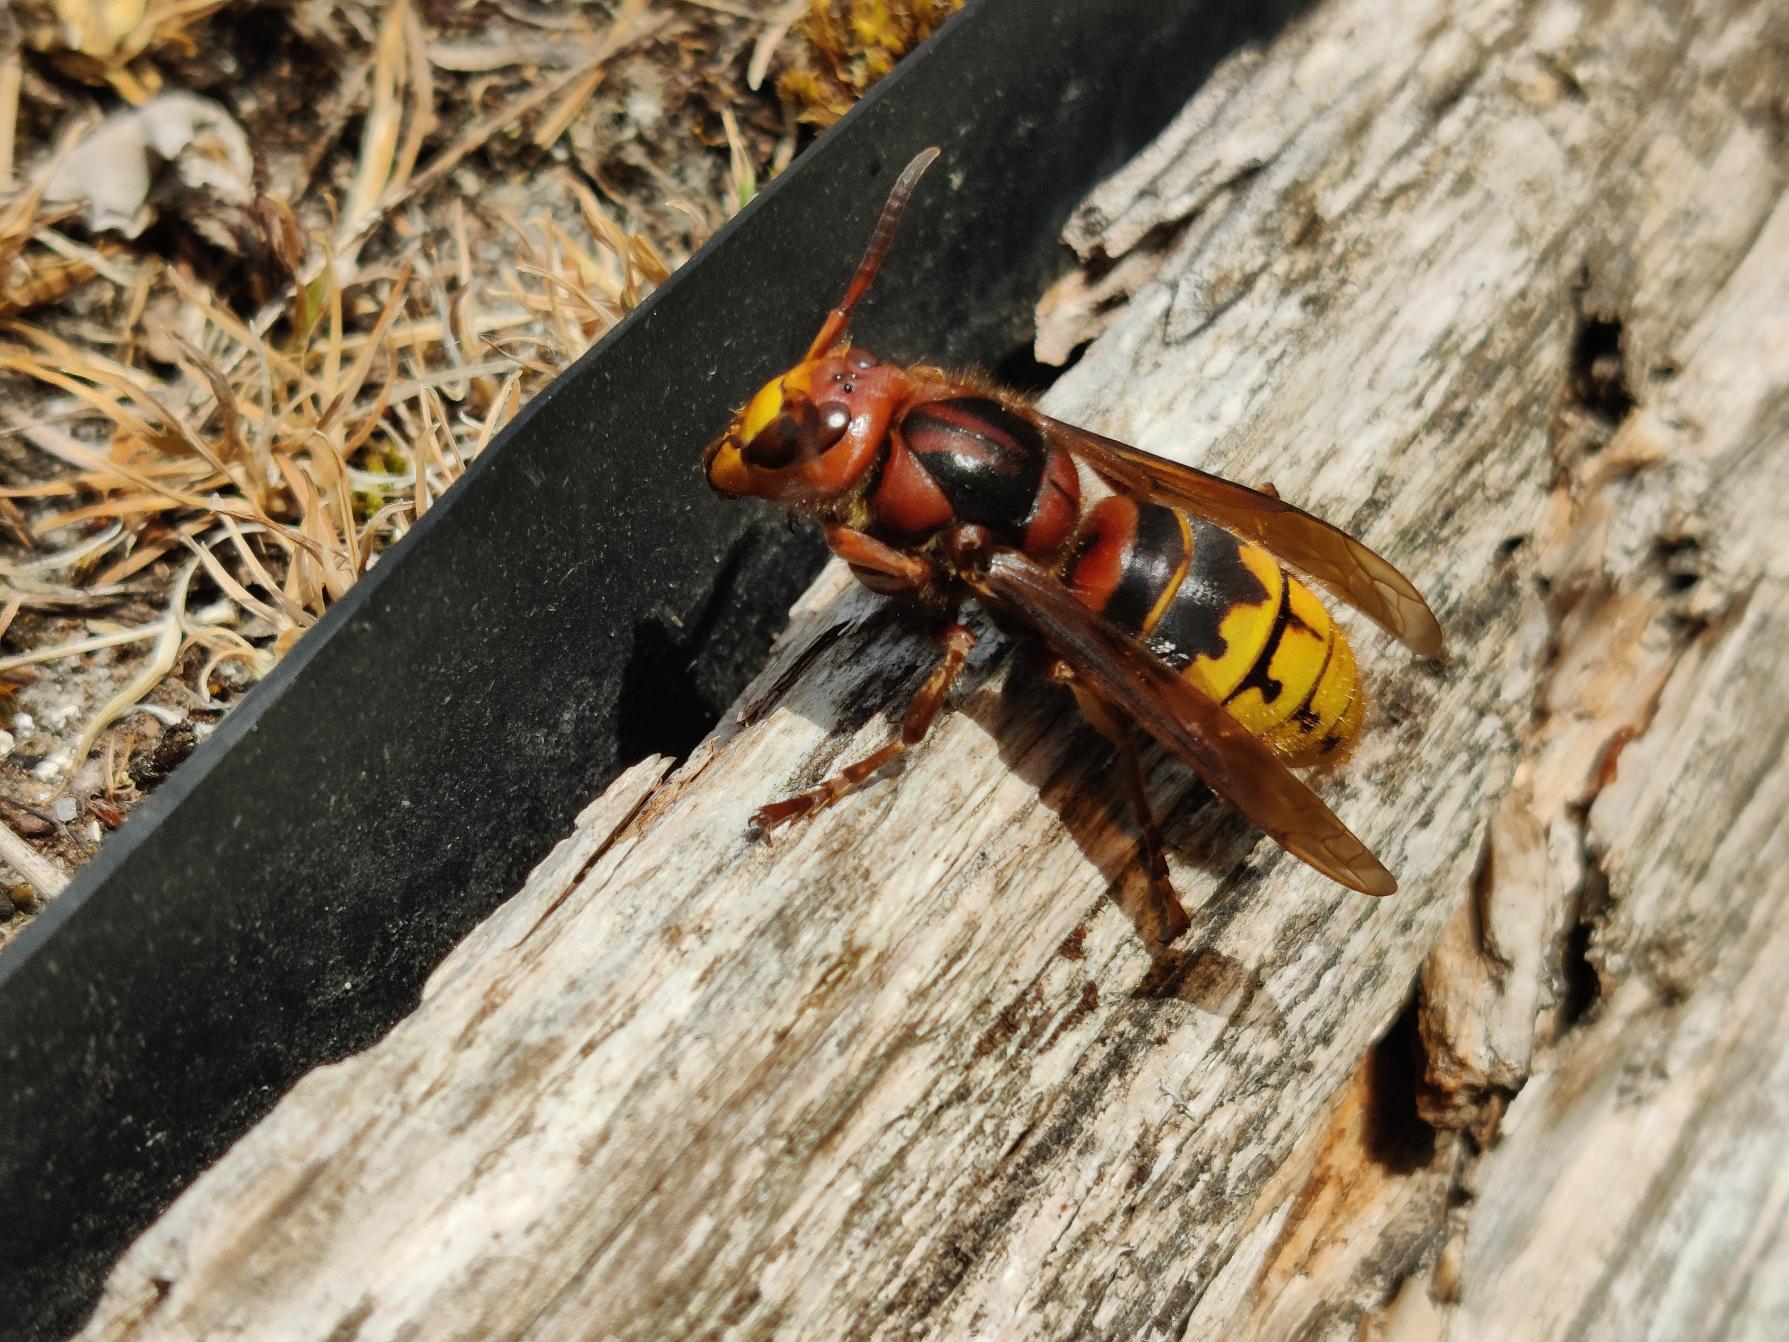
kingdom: Animalia
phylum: Arthropoda
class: Insecta
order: Hymenoptera
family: Vespidae
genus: Vespa
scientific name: Vespa crabro
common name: Stor gedehams
